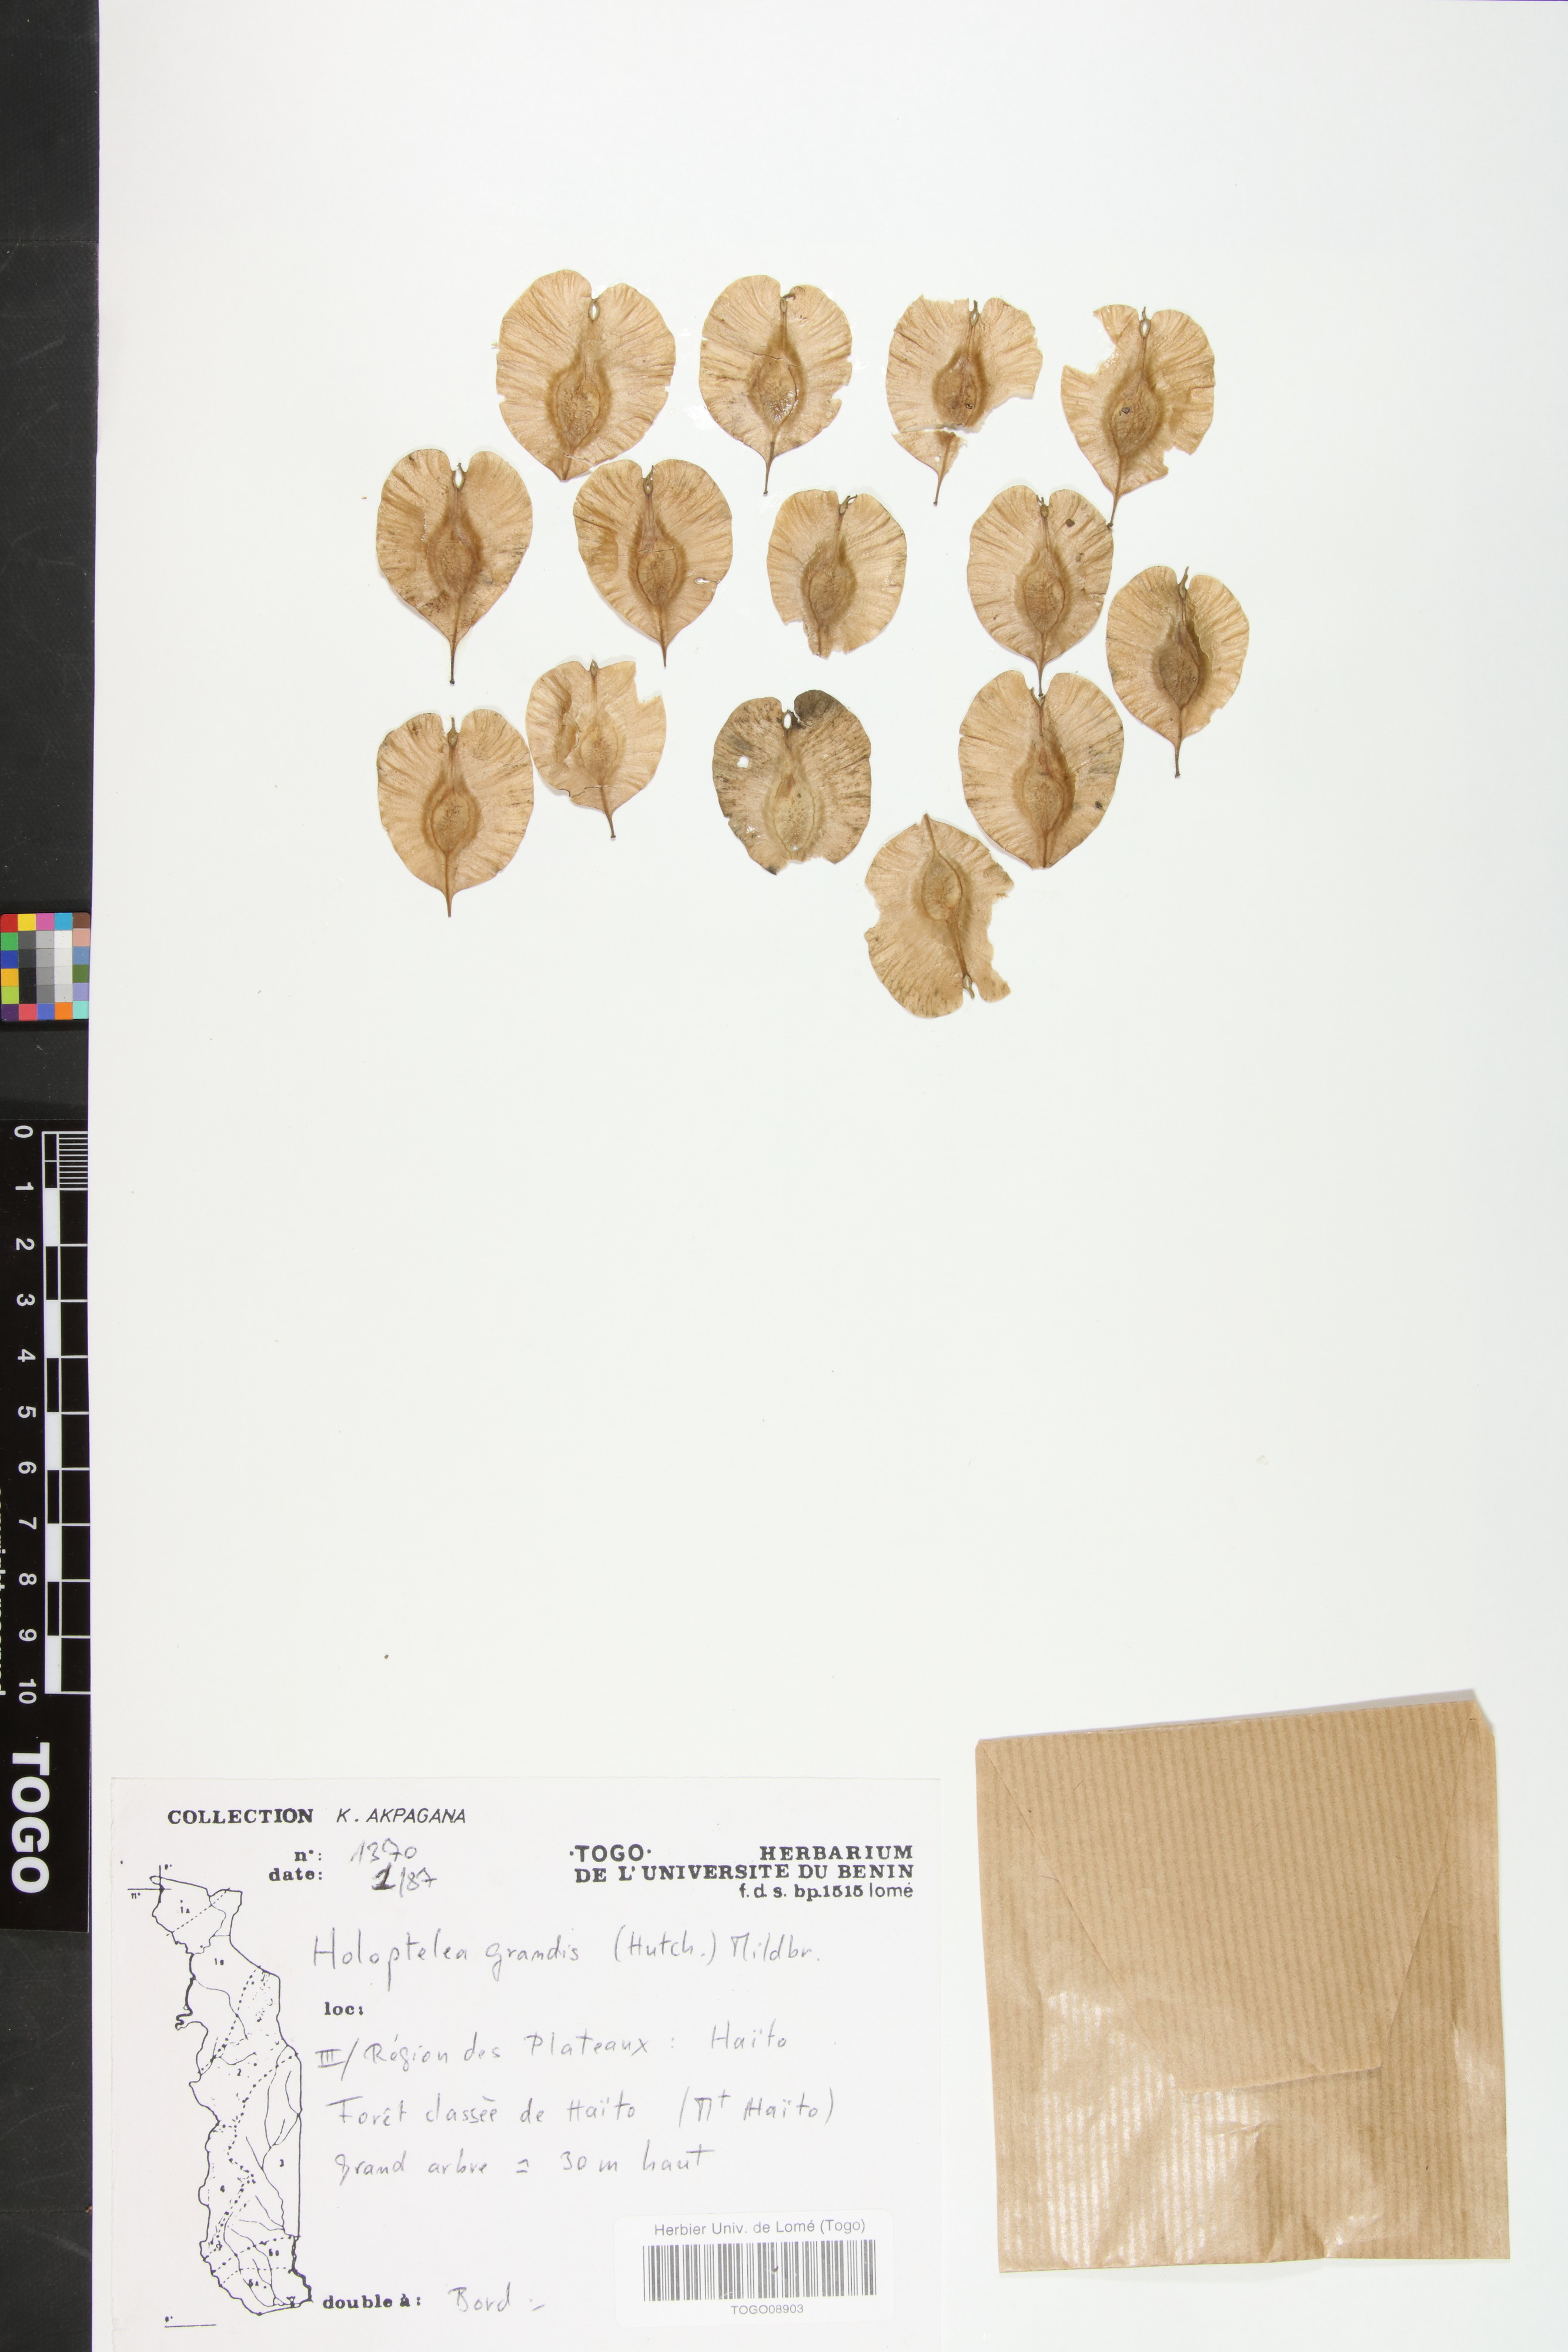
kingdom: Plantae
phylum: Tracheophyta
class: Magnoliopsida
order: Rosales
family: Ulmaceae
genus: Holoptelea
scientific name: Holoptelea grandis
